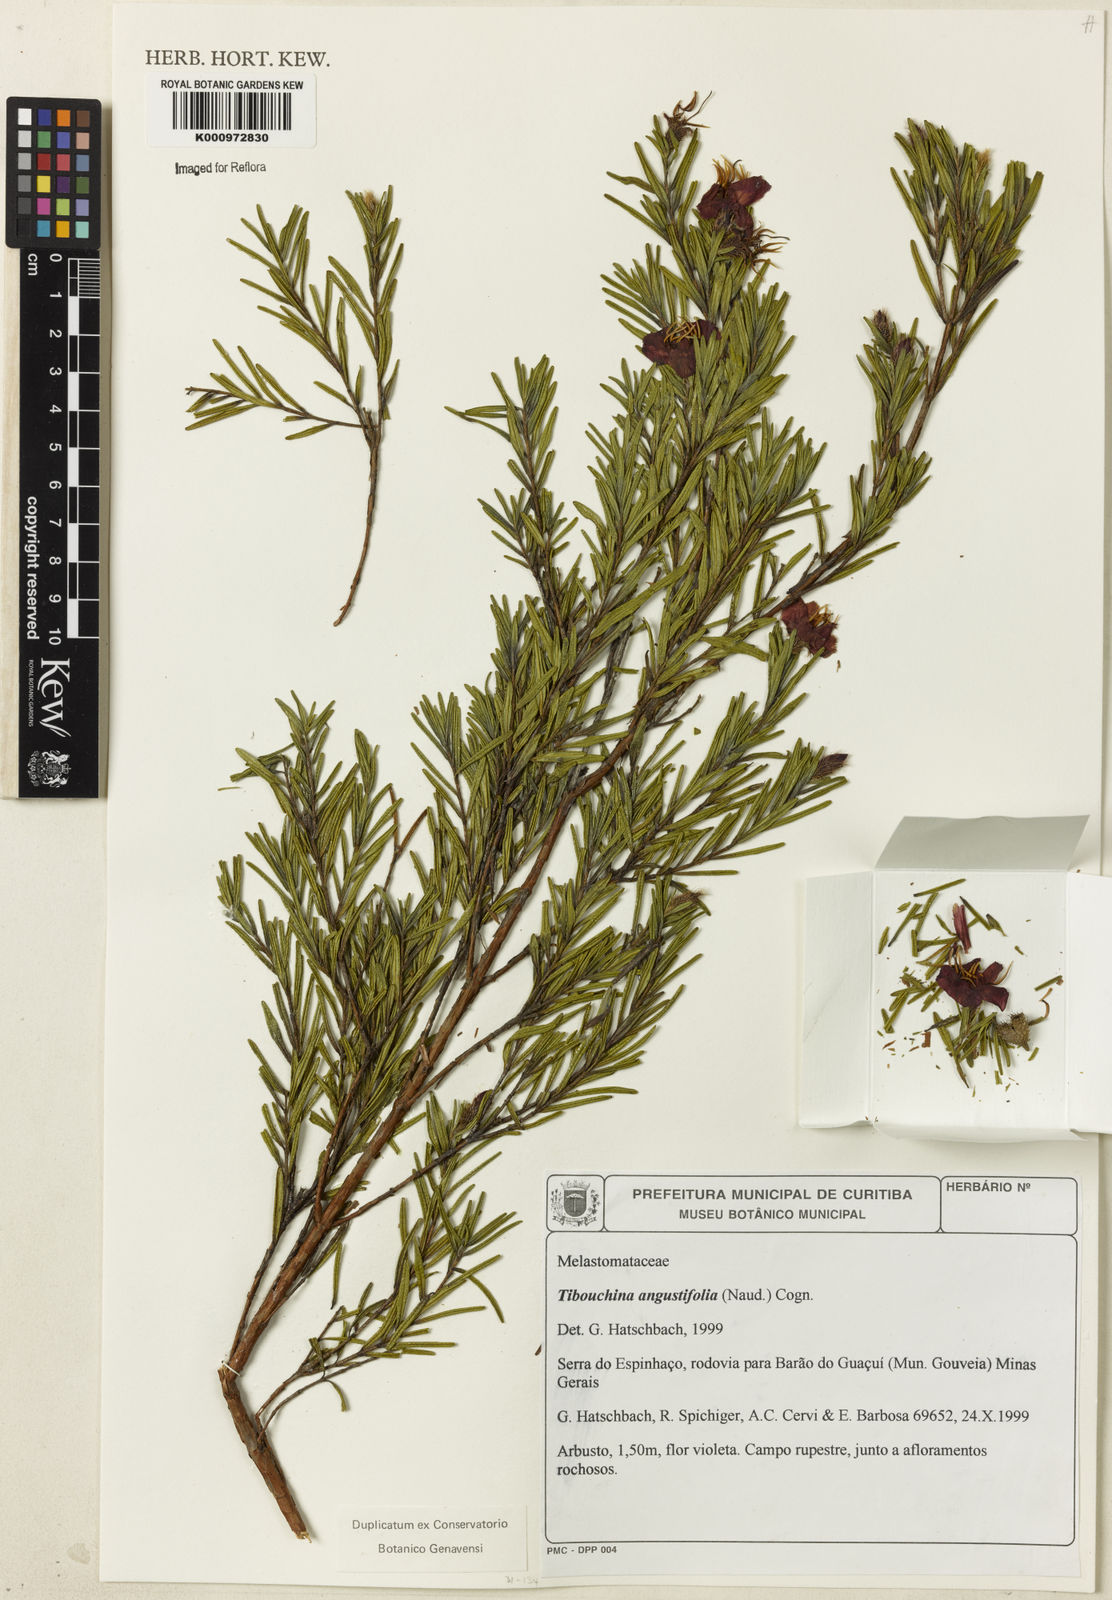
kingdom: Plantae
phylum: Tracheophyta
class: Magnoliopsida
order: Myrtales
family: Melastomataceae
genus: Pleroma
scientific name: Pleroma angustifolium
